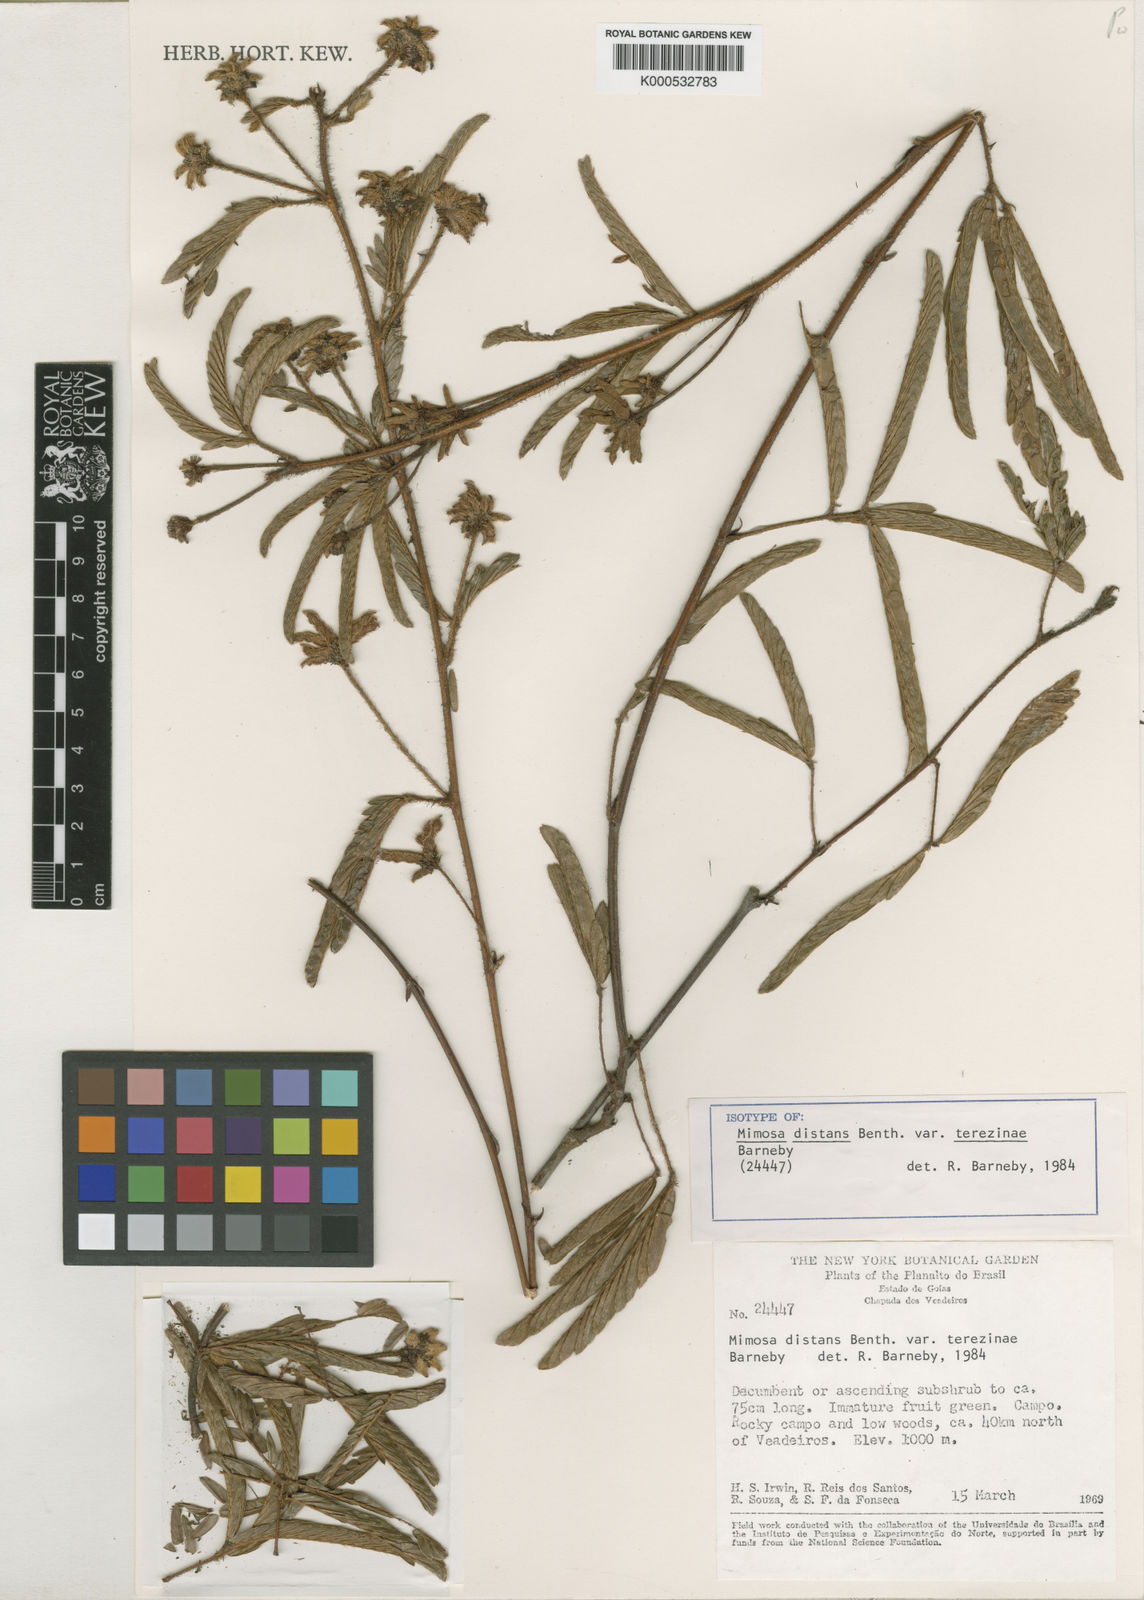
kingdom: Plantae
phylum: Tracheophyta
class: Magnoliopsida
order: Fabales
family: Fabaceae
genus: Mimosa
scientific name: Mimosa distans
